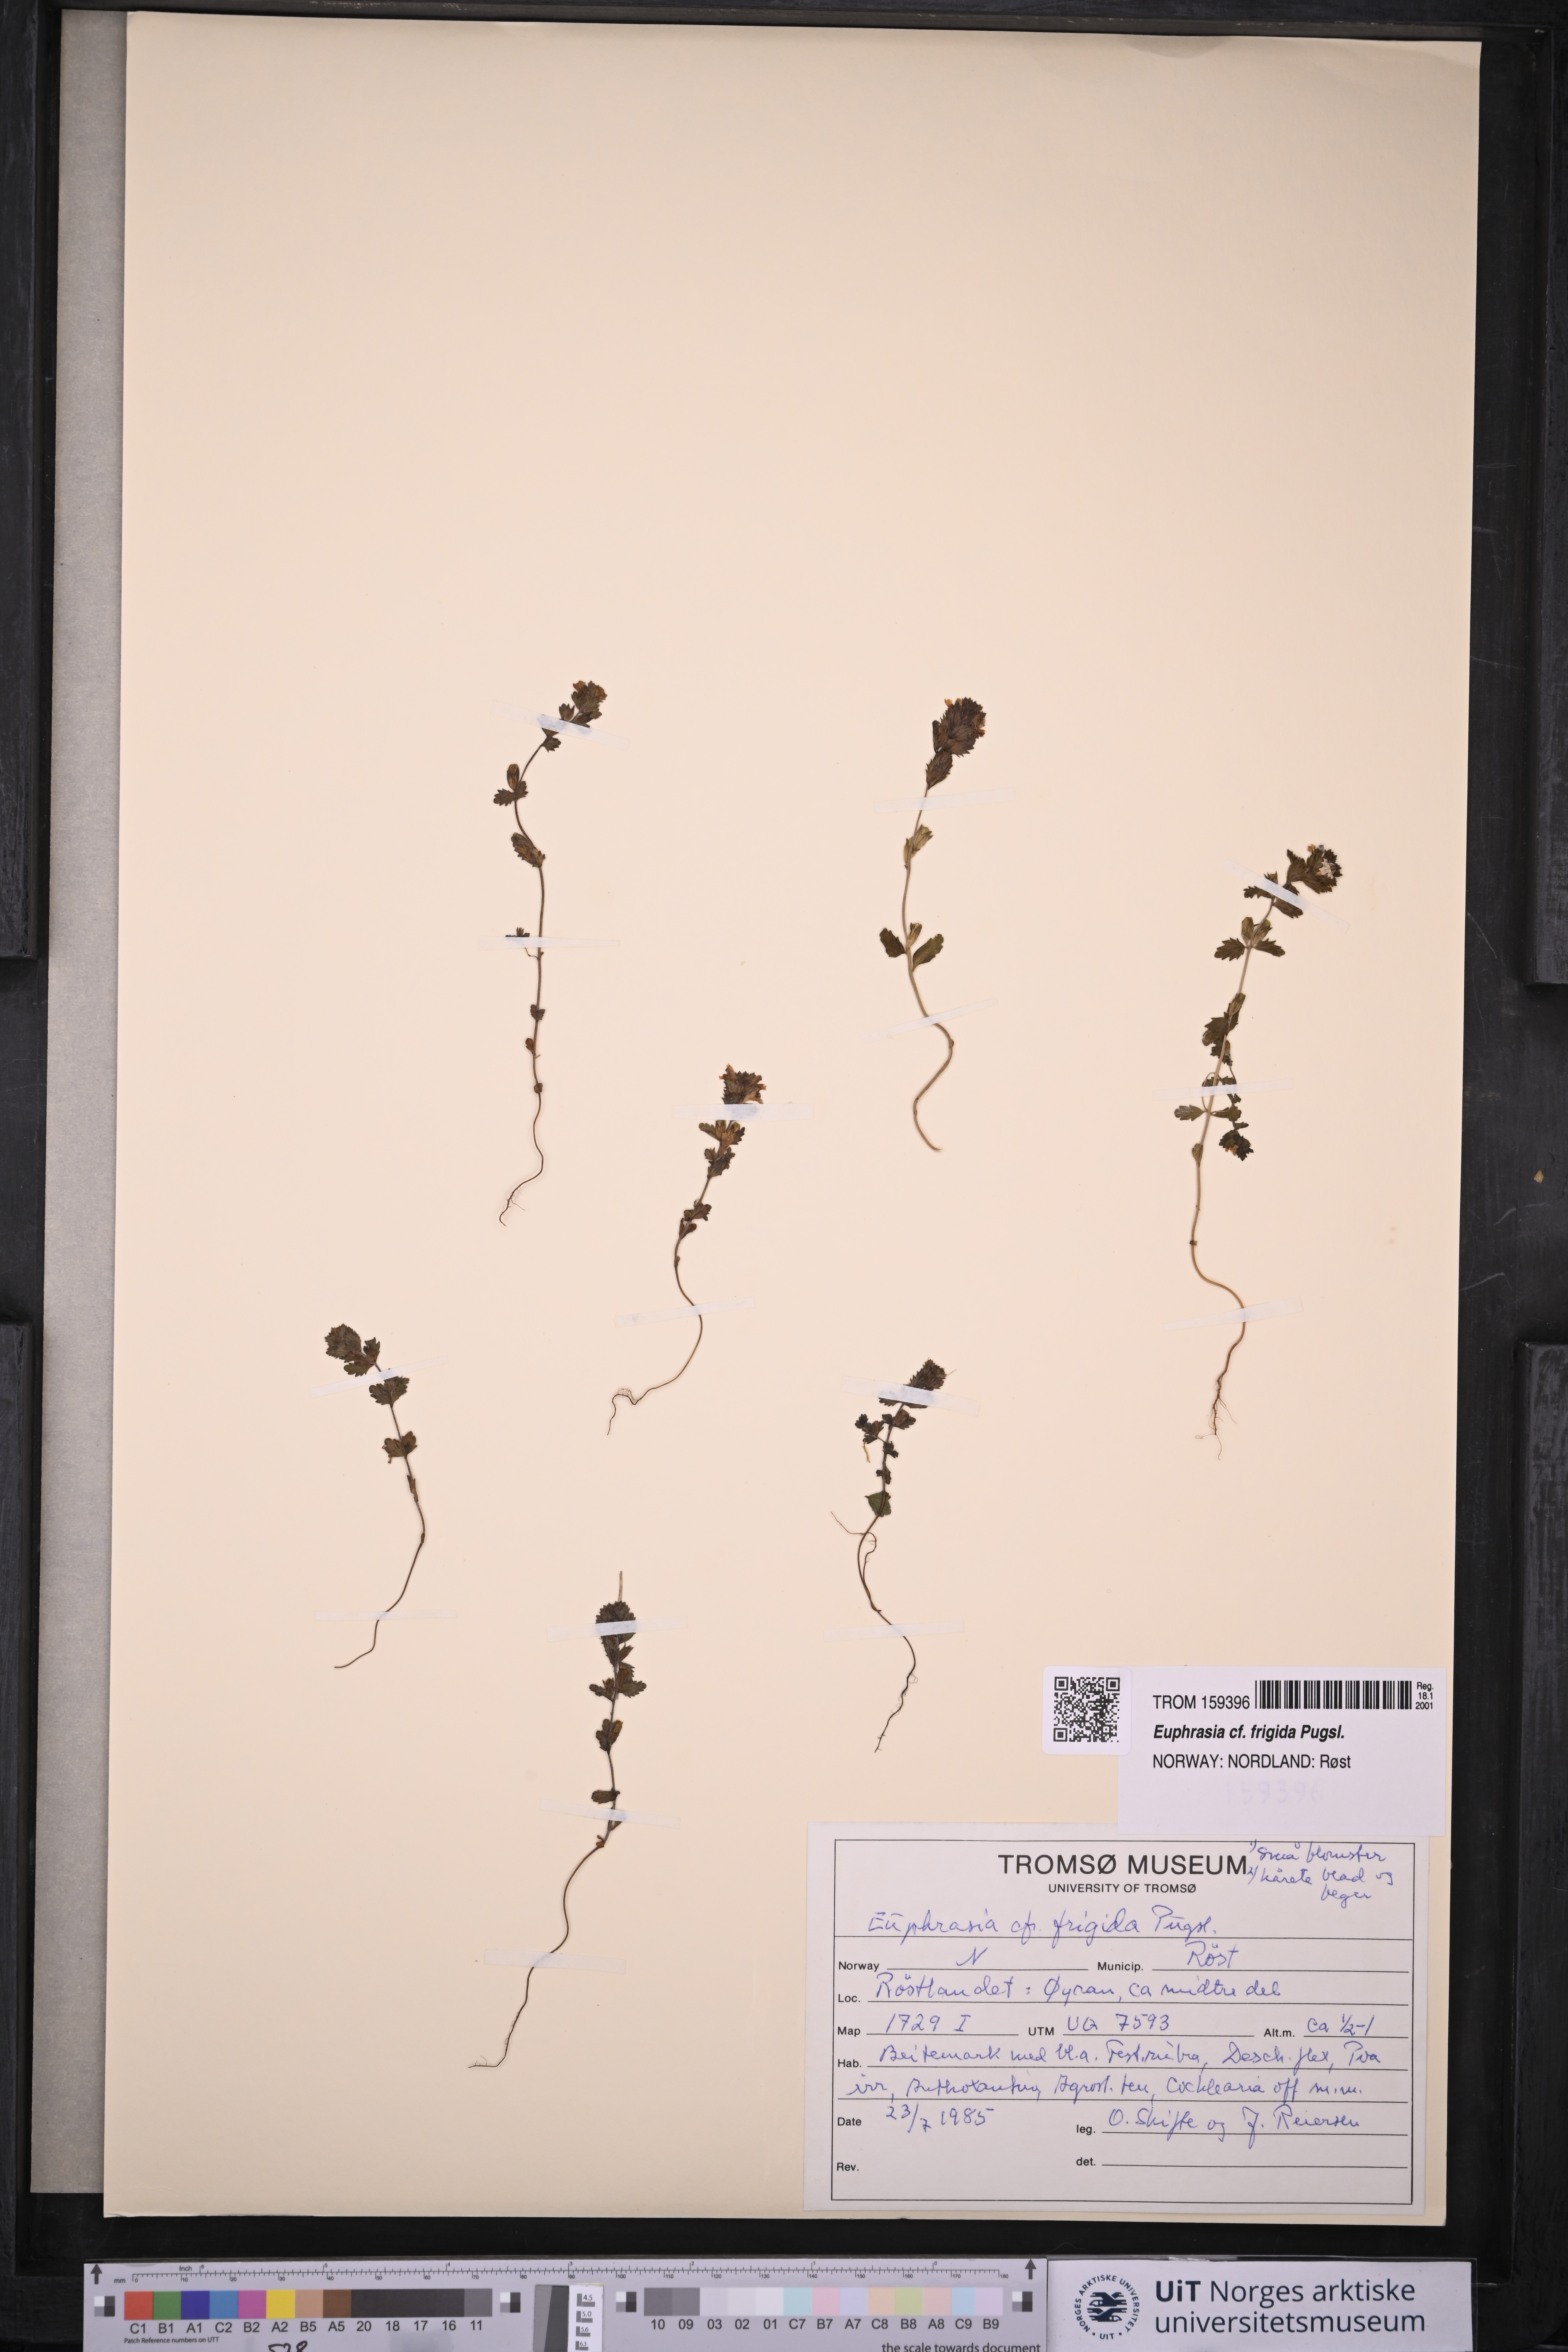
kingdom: Plantae
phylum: Tracheophyta
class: Magnoliopsida
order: Lamiales
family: Orobanchaceae
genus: Euphrasia
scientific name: Euphrasia frigida
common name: An eyebright
